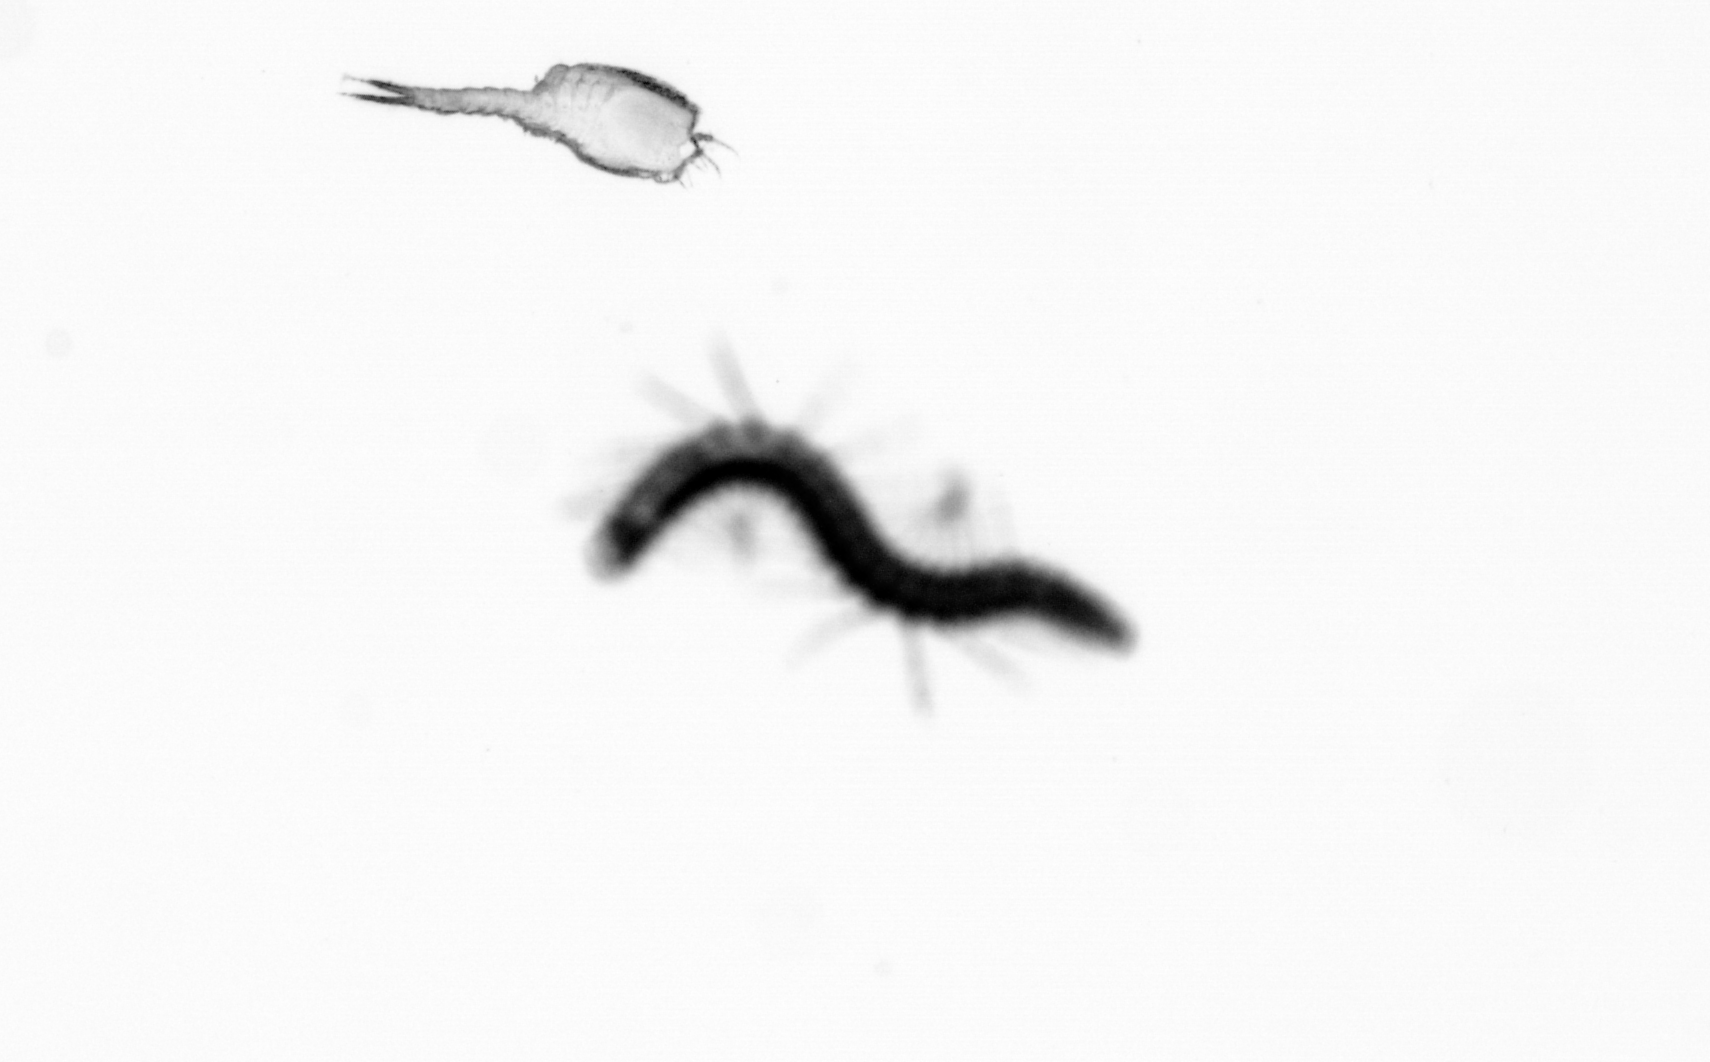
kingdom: Animalia
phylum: Annelida
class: Polychaeta
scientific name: Polychaeta
